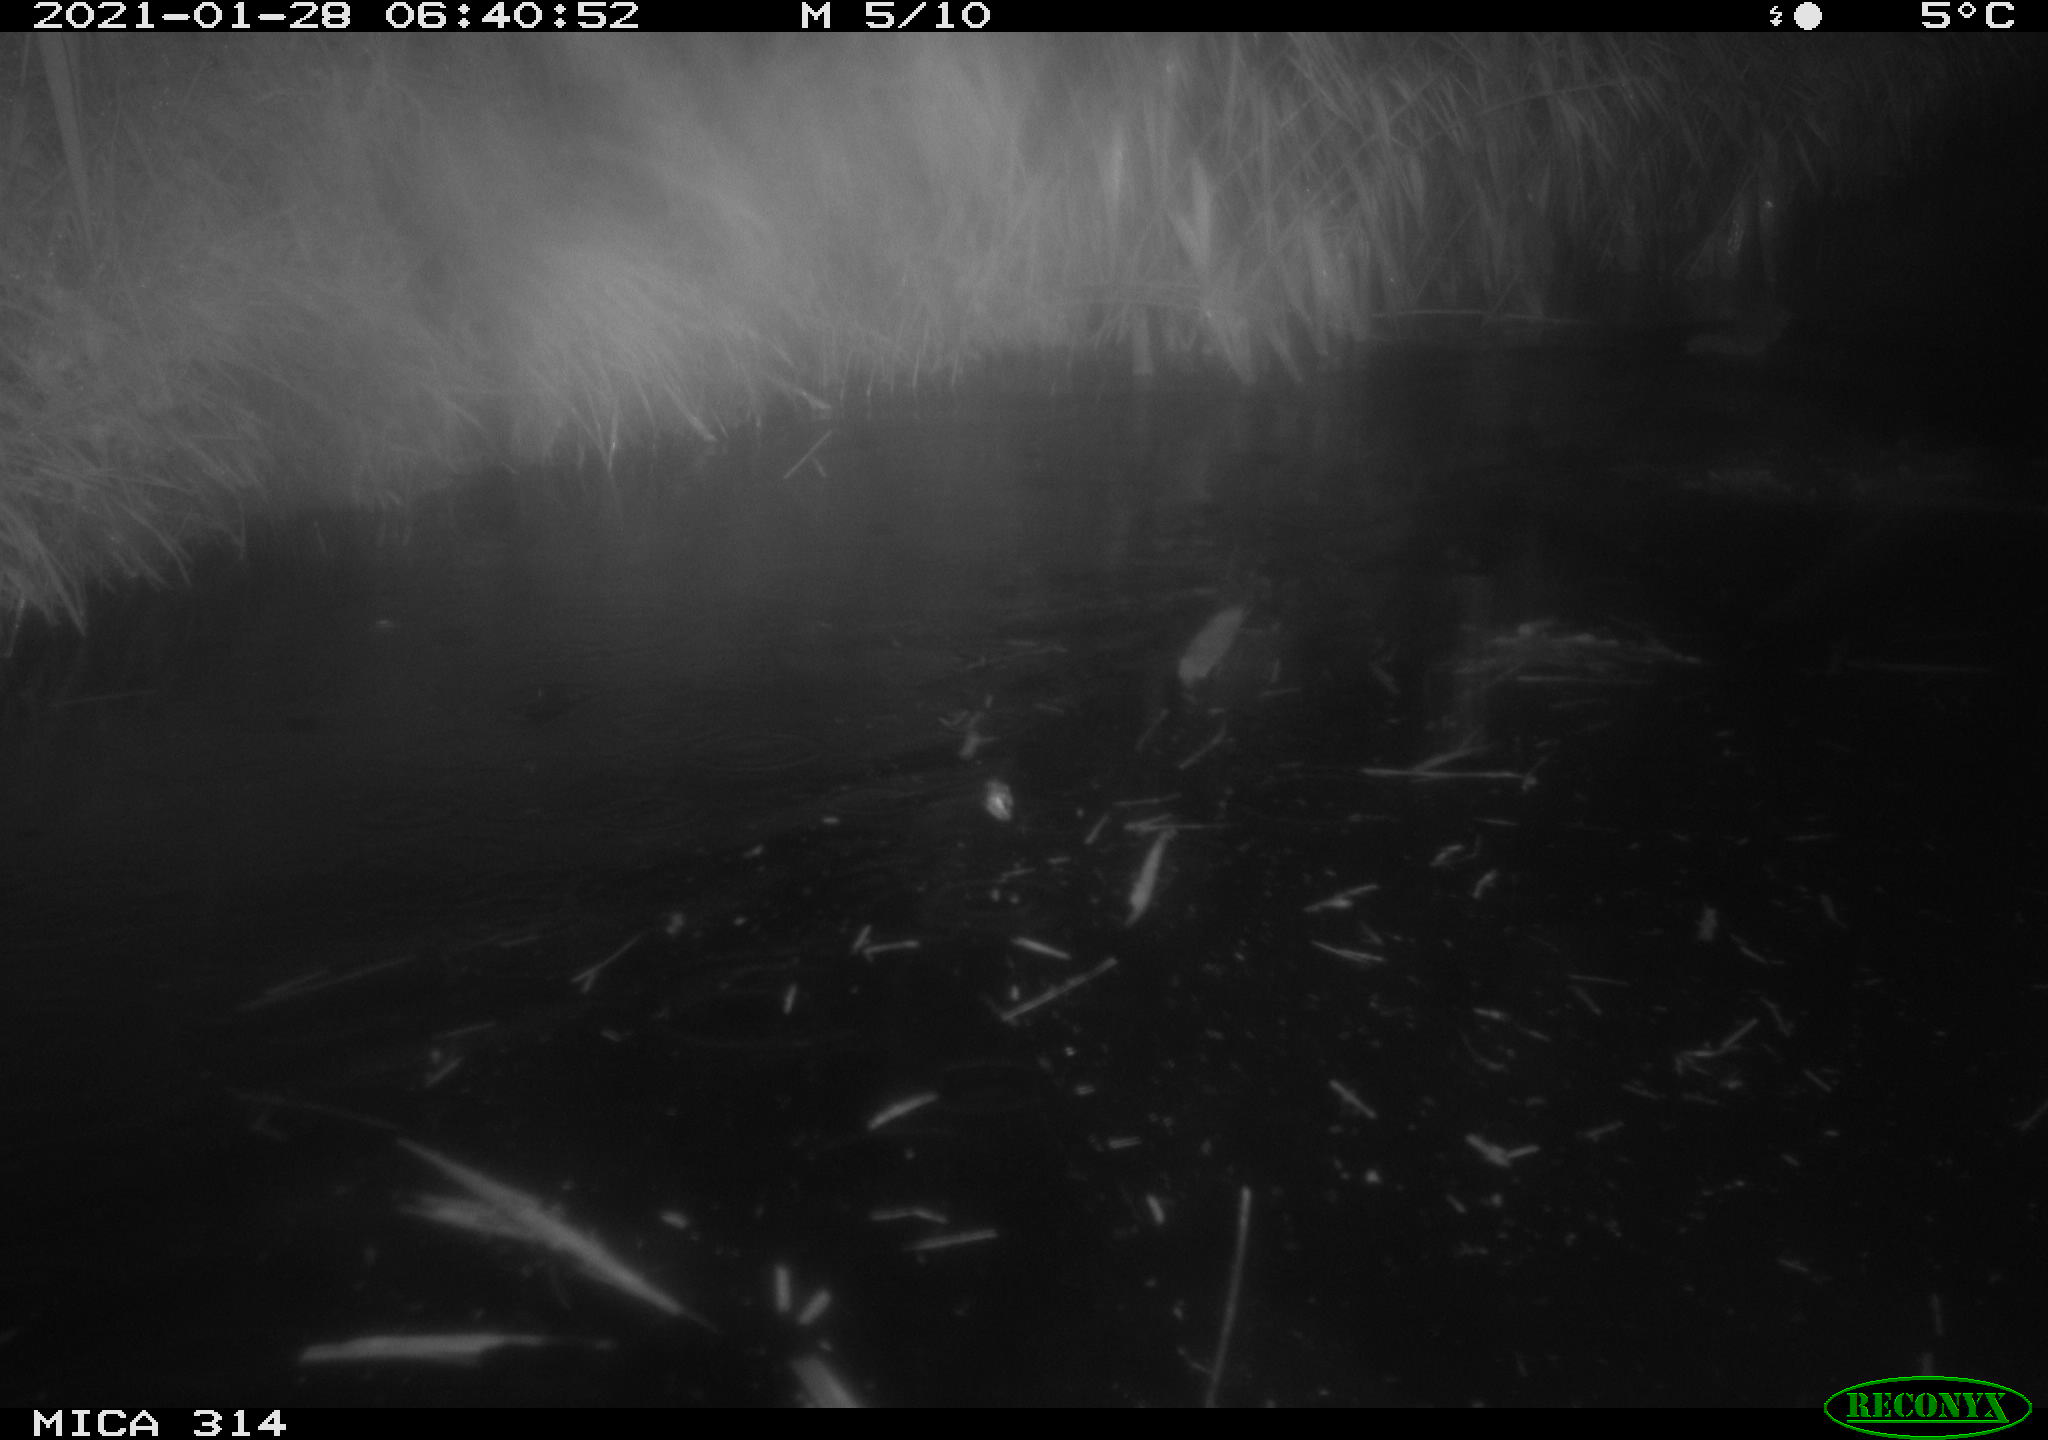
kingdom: Animalia
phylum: Chordata
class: Mammalia
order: Rodentia
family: Muridae
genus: Rattus
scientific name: Rattus norvegicus
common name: Brown rat
